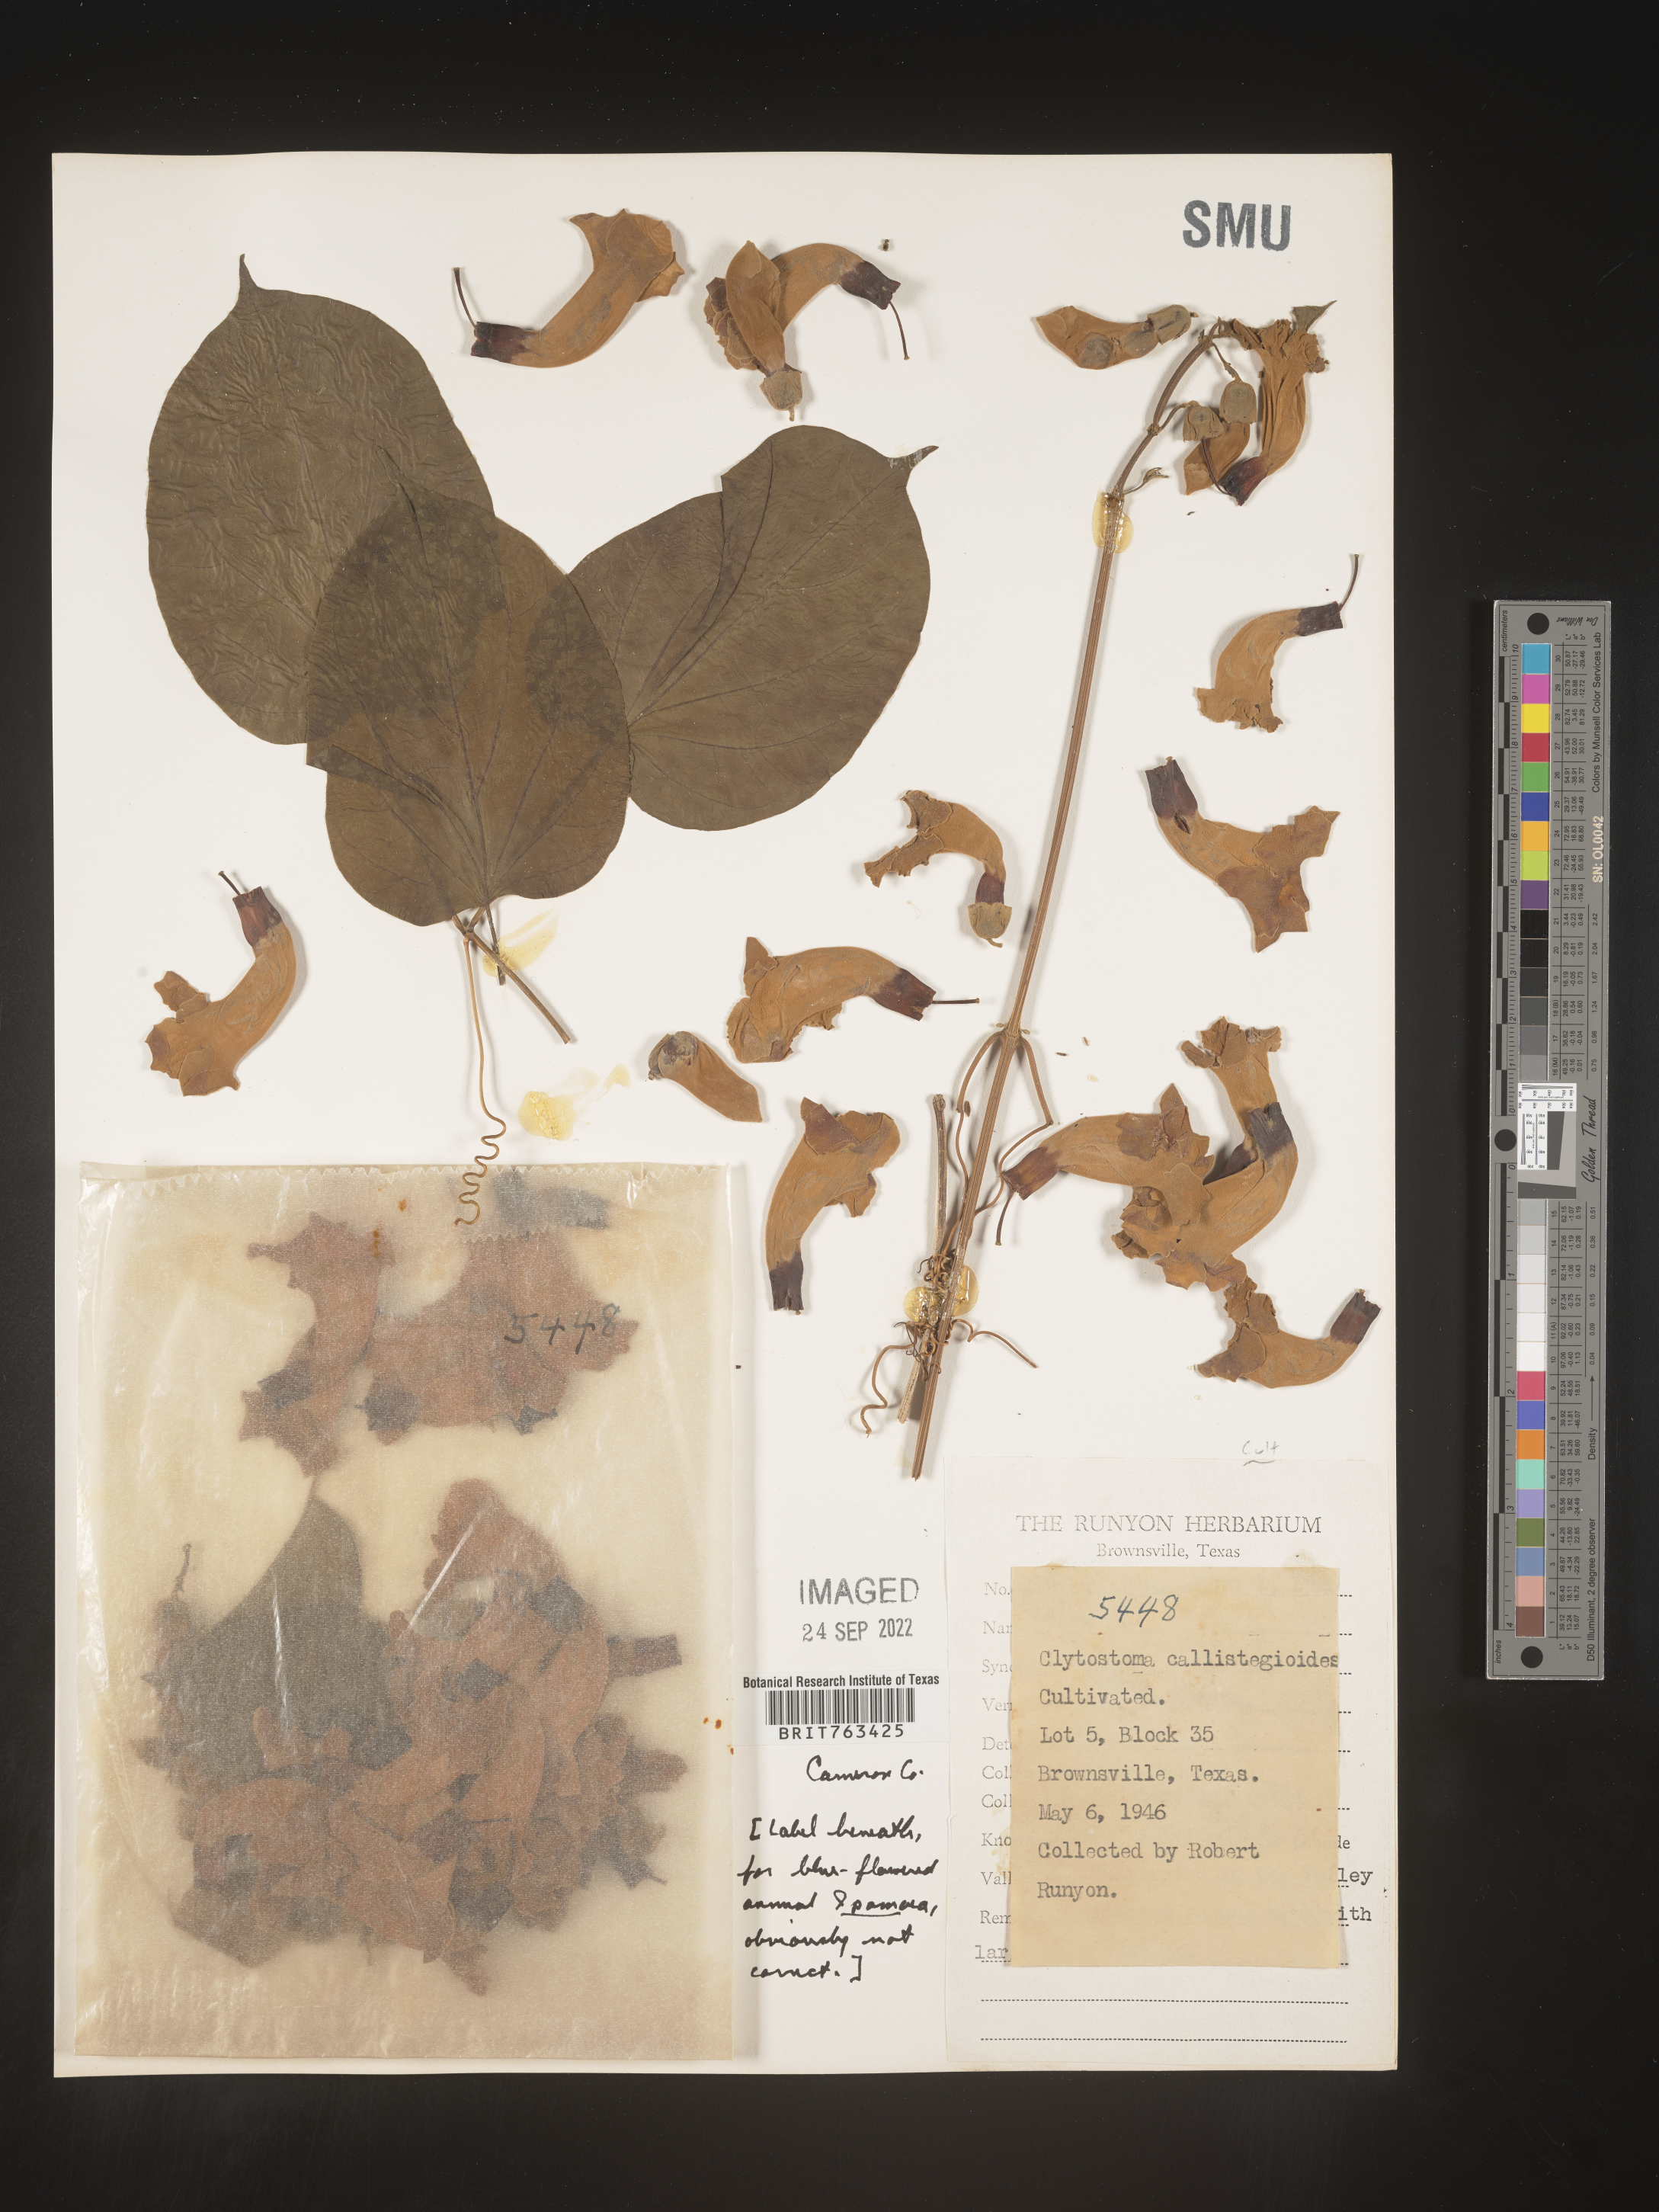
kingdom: Plantae
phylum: Tracheophyta
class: Magnoliopsida
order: Lamiales
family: Bignoniaceae
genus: Bignonia
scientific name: Bignonia
